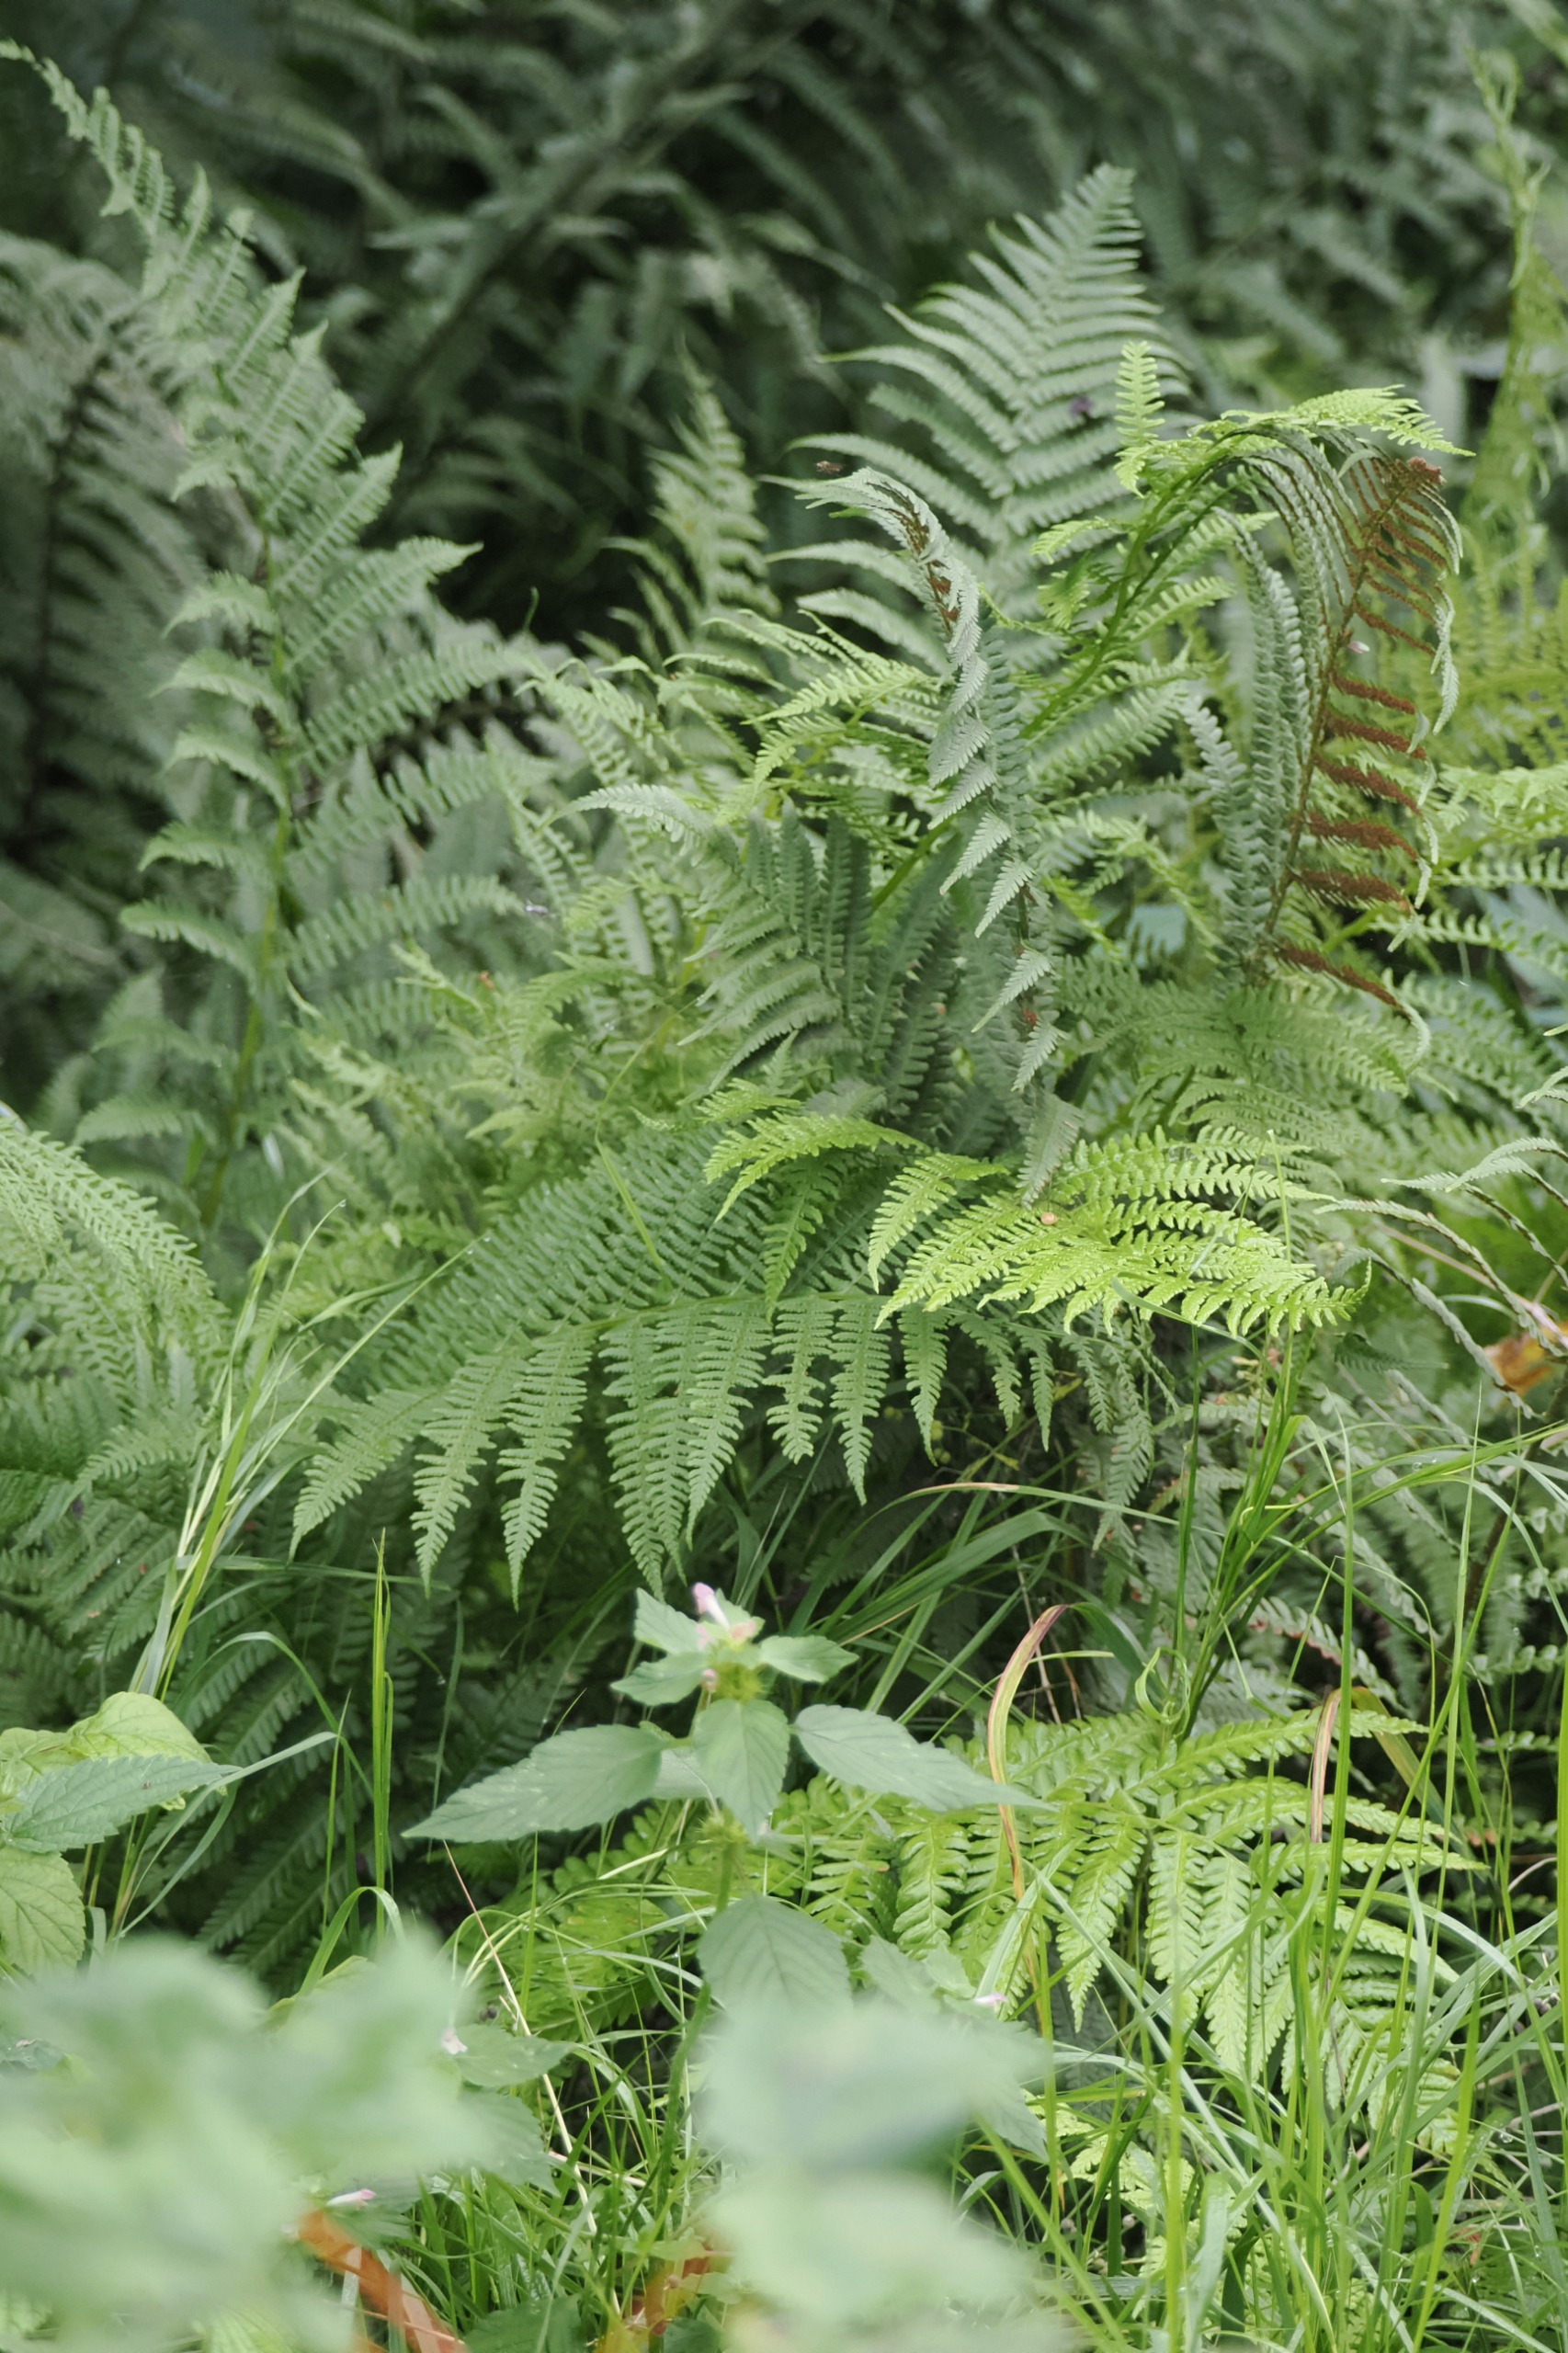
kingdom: Plantae
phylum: Tracheophyta
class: Polypodiopsida
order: Polypodiales
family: Athyriaceae
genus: Athyrium
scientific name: Athyrium filix-femina
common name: Fjerbregne
